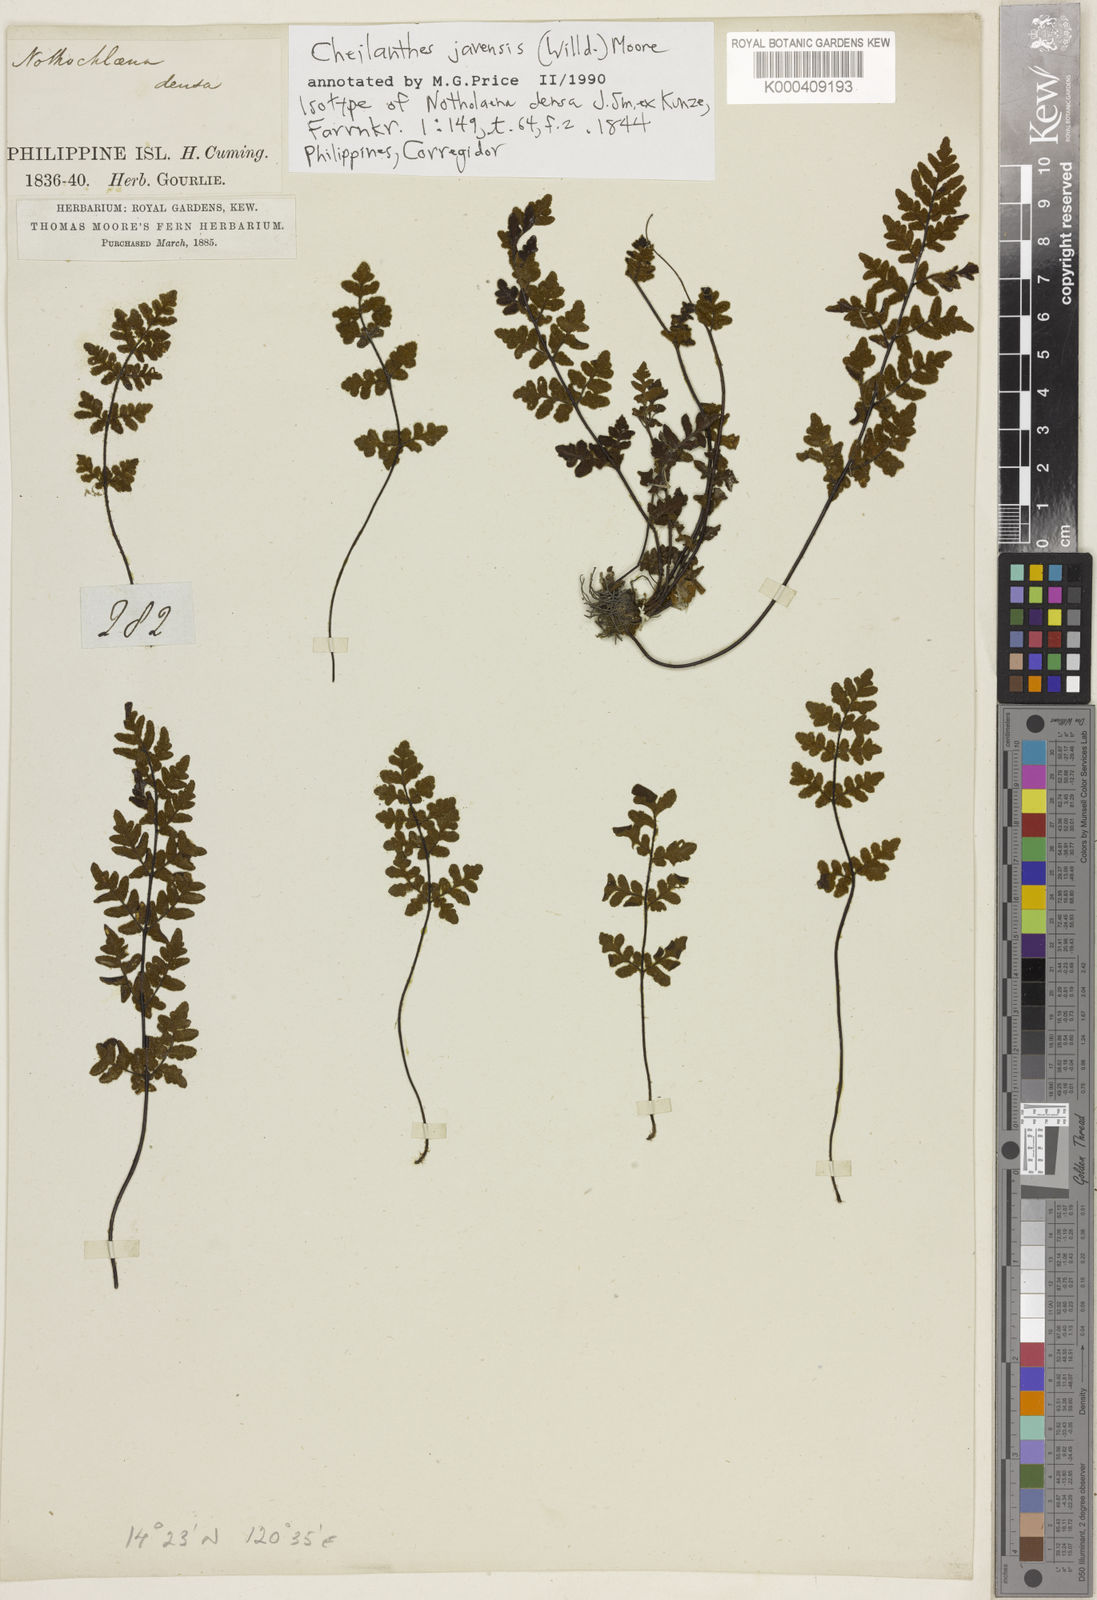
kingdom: Plantae
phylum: Tracheophyta
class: Polypodiopsida
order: Polypodiales
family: Pteridaceae
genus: Cheilanthes
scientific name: Cheilanthes nudiuscula
